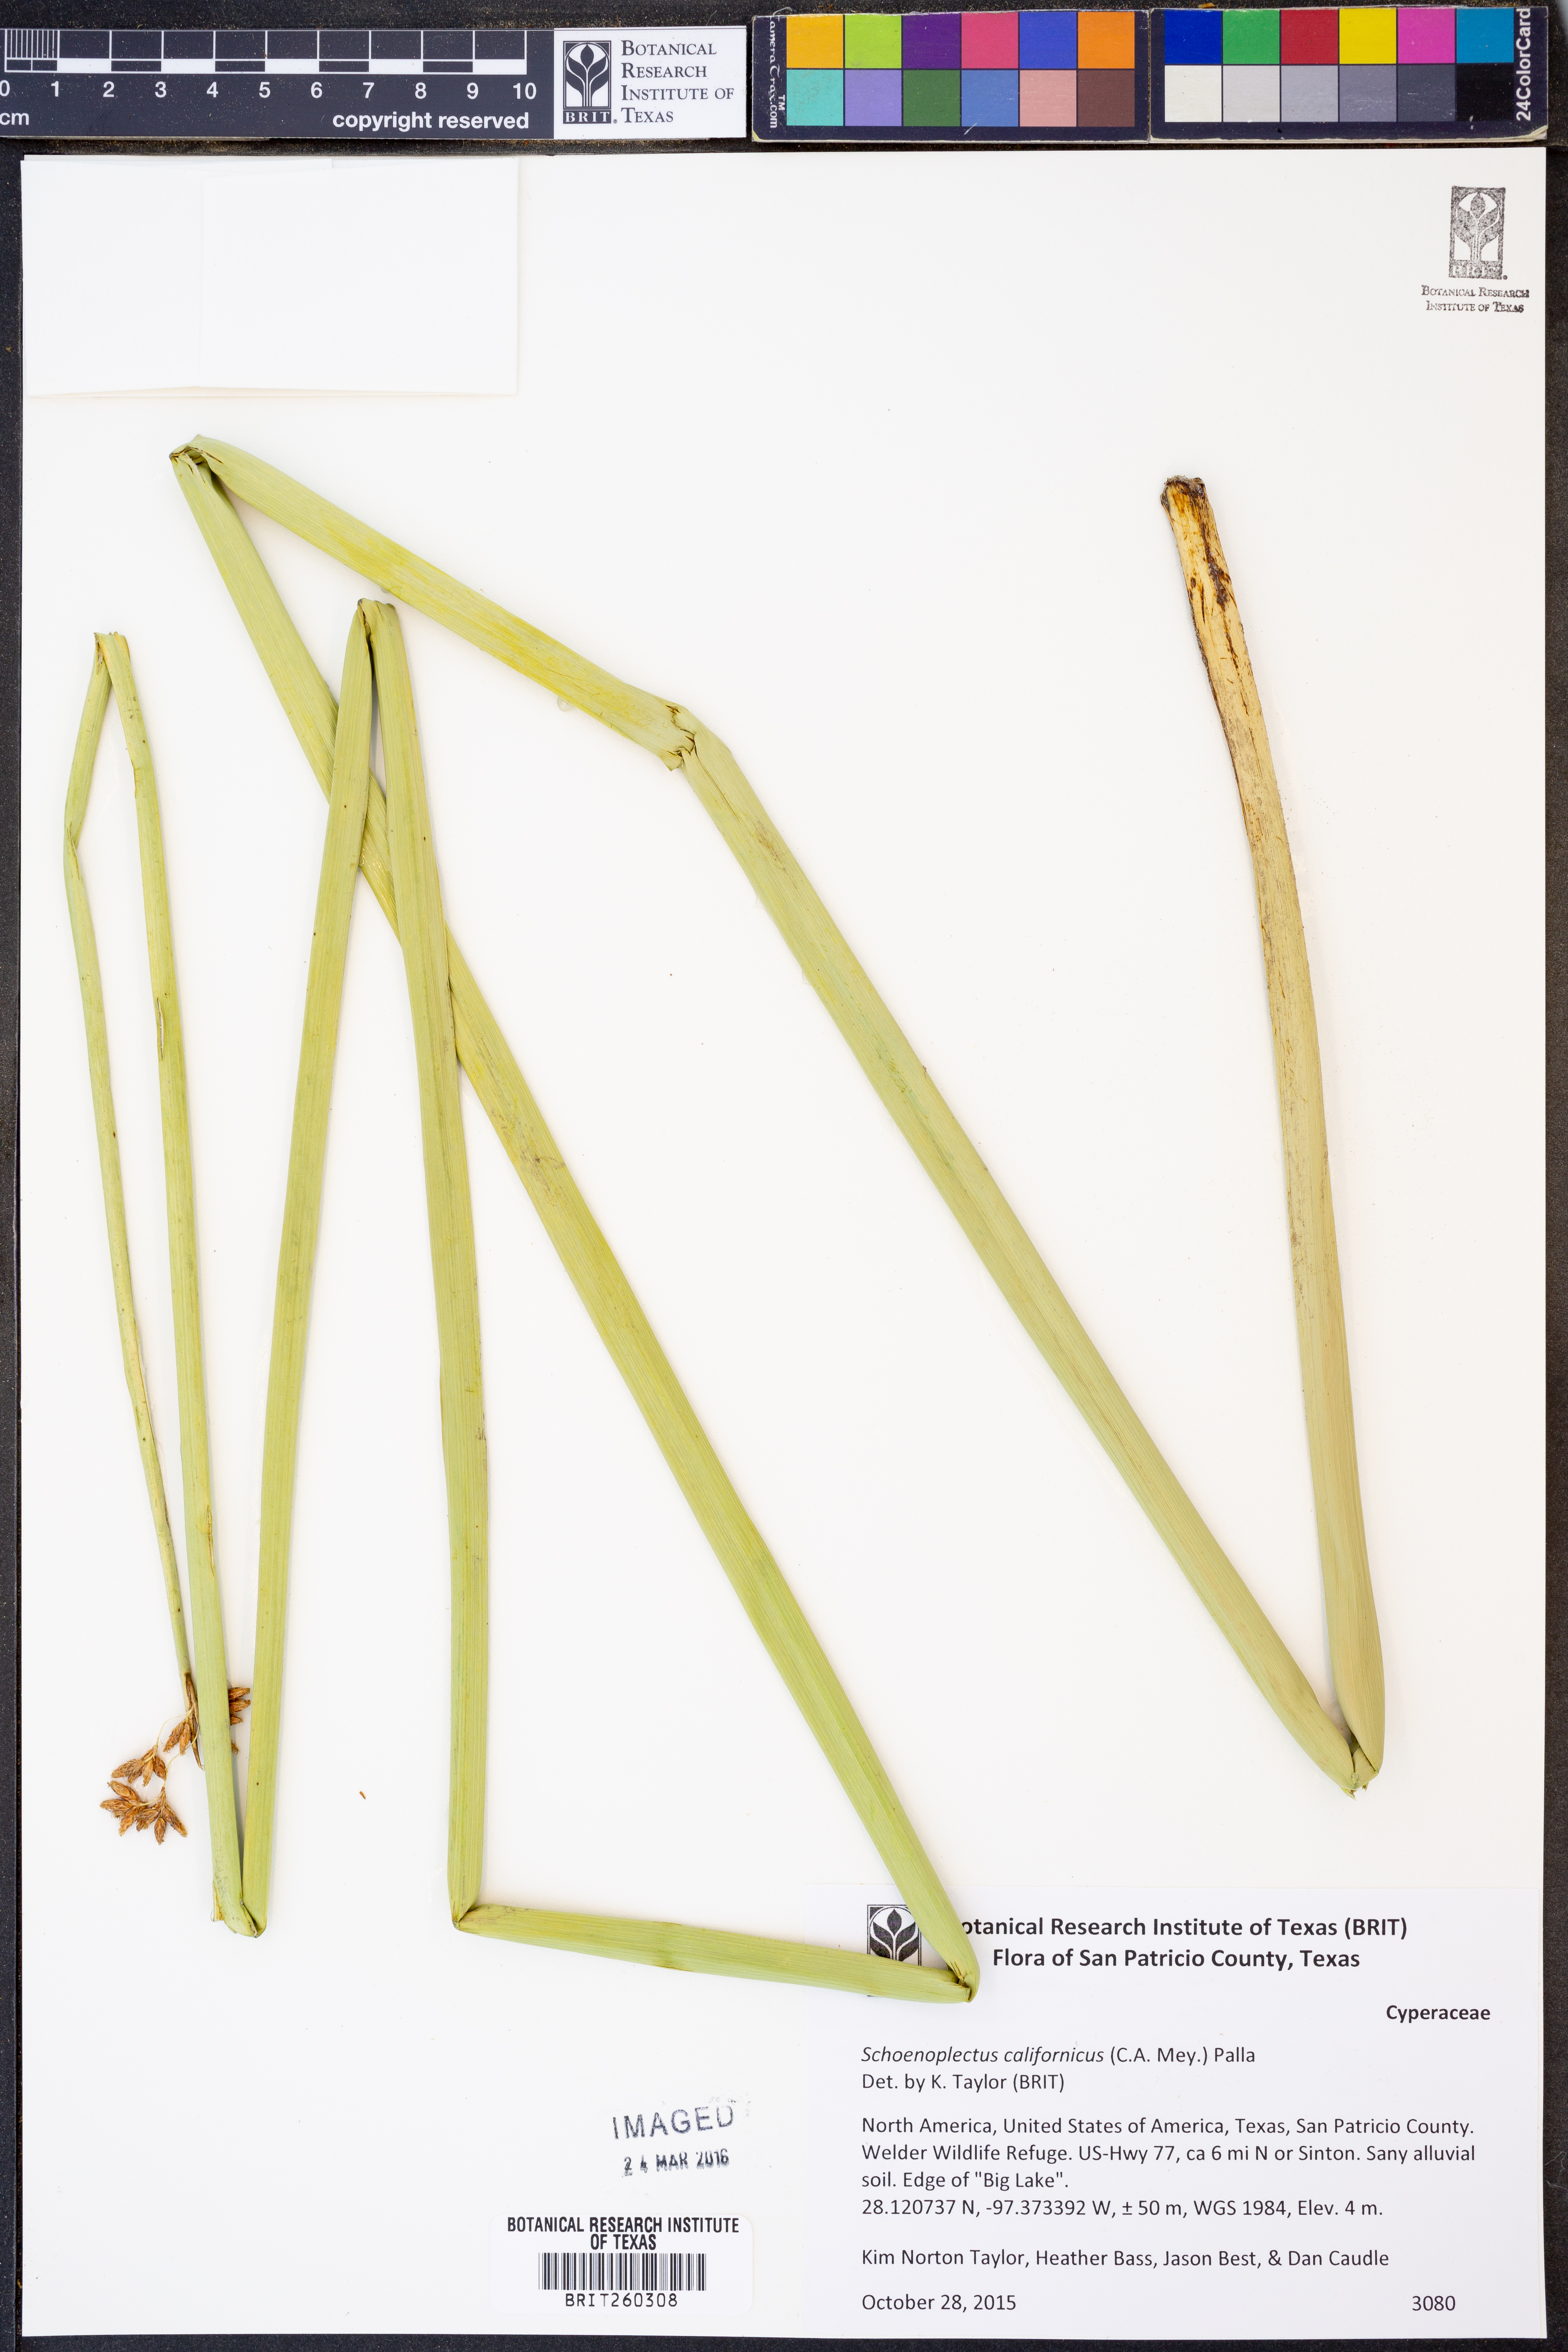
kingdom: Plantae
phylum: Tracheophyta
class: Liliopsida
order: Poales
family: Cyperaceae
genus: Schoenoplectus
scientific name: Schoenoplectus californicus
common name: California bulrush
